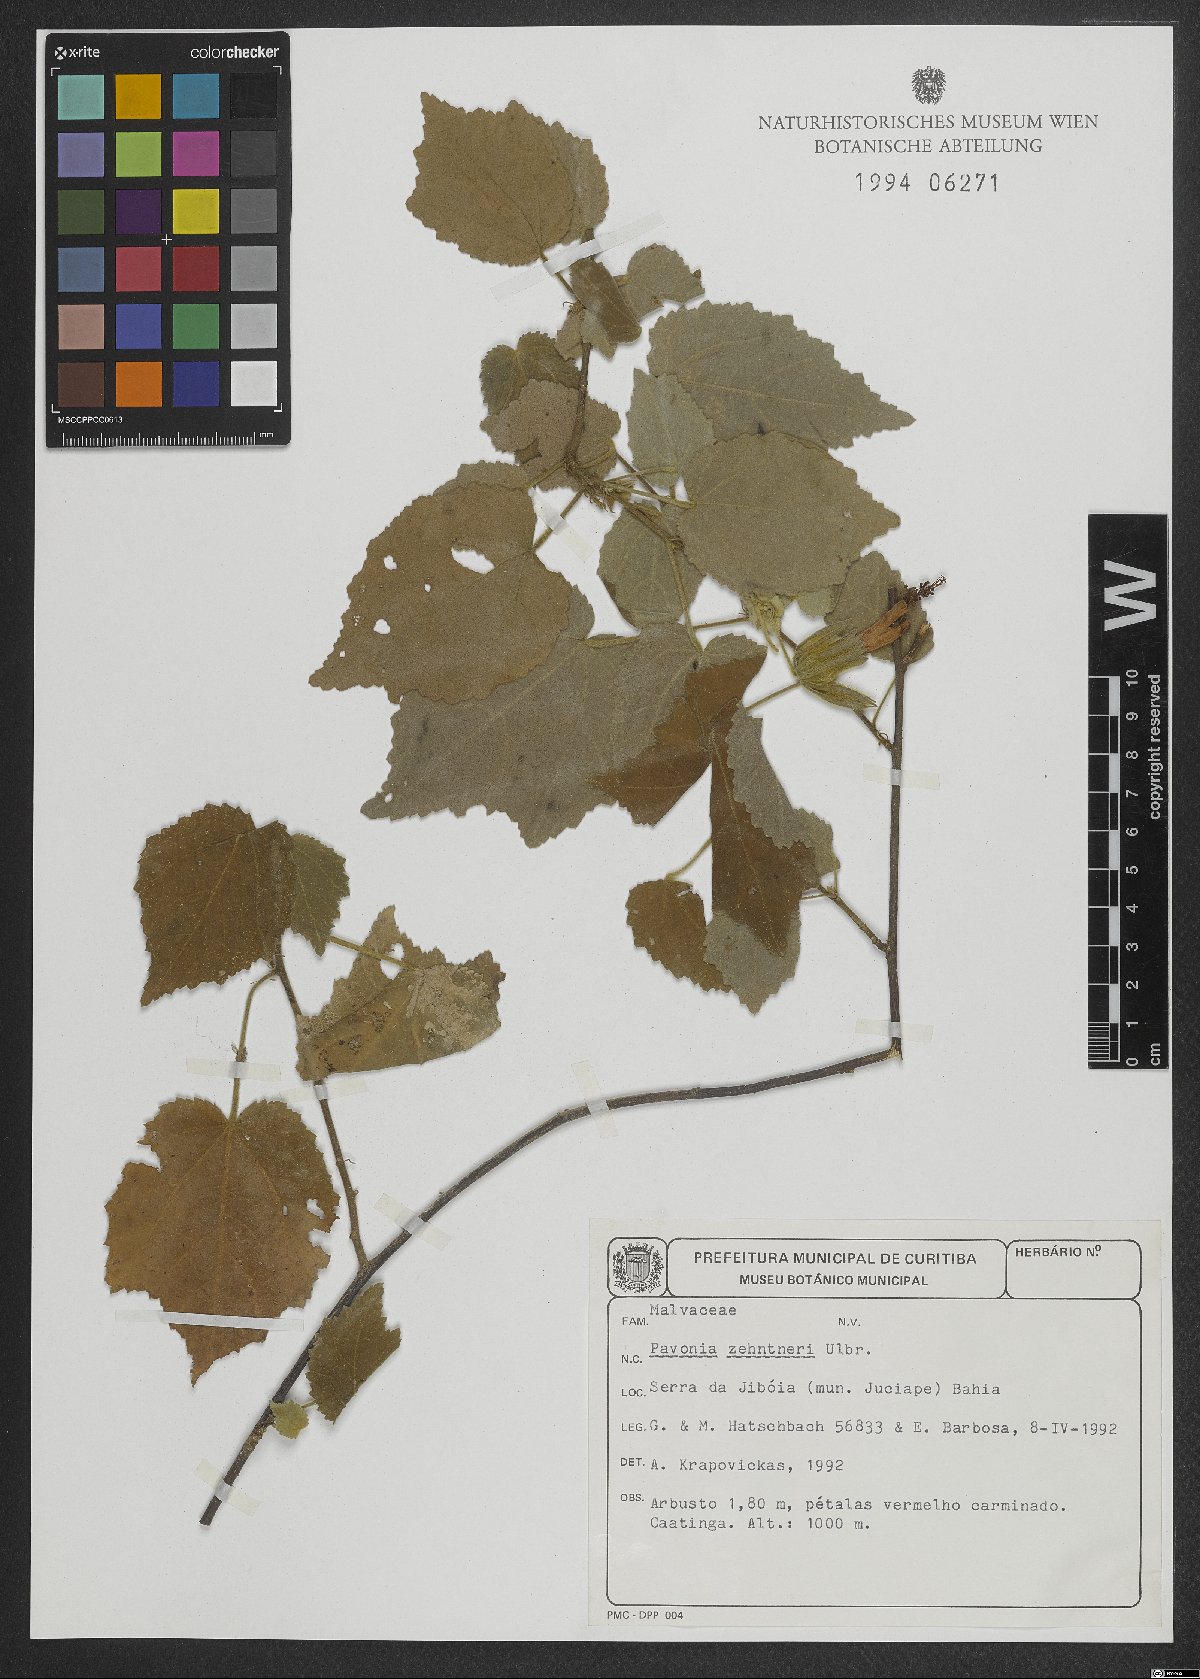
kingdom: Plantae
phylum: Tracheophyta
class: Magnoliopsida
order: Malvales
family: Malvaceae
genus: Pavonia
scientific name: Pavonia zehntneri
